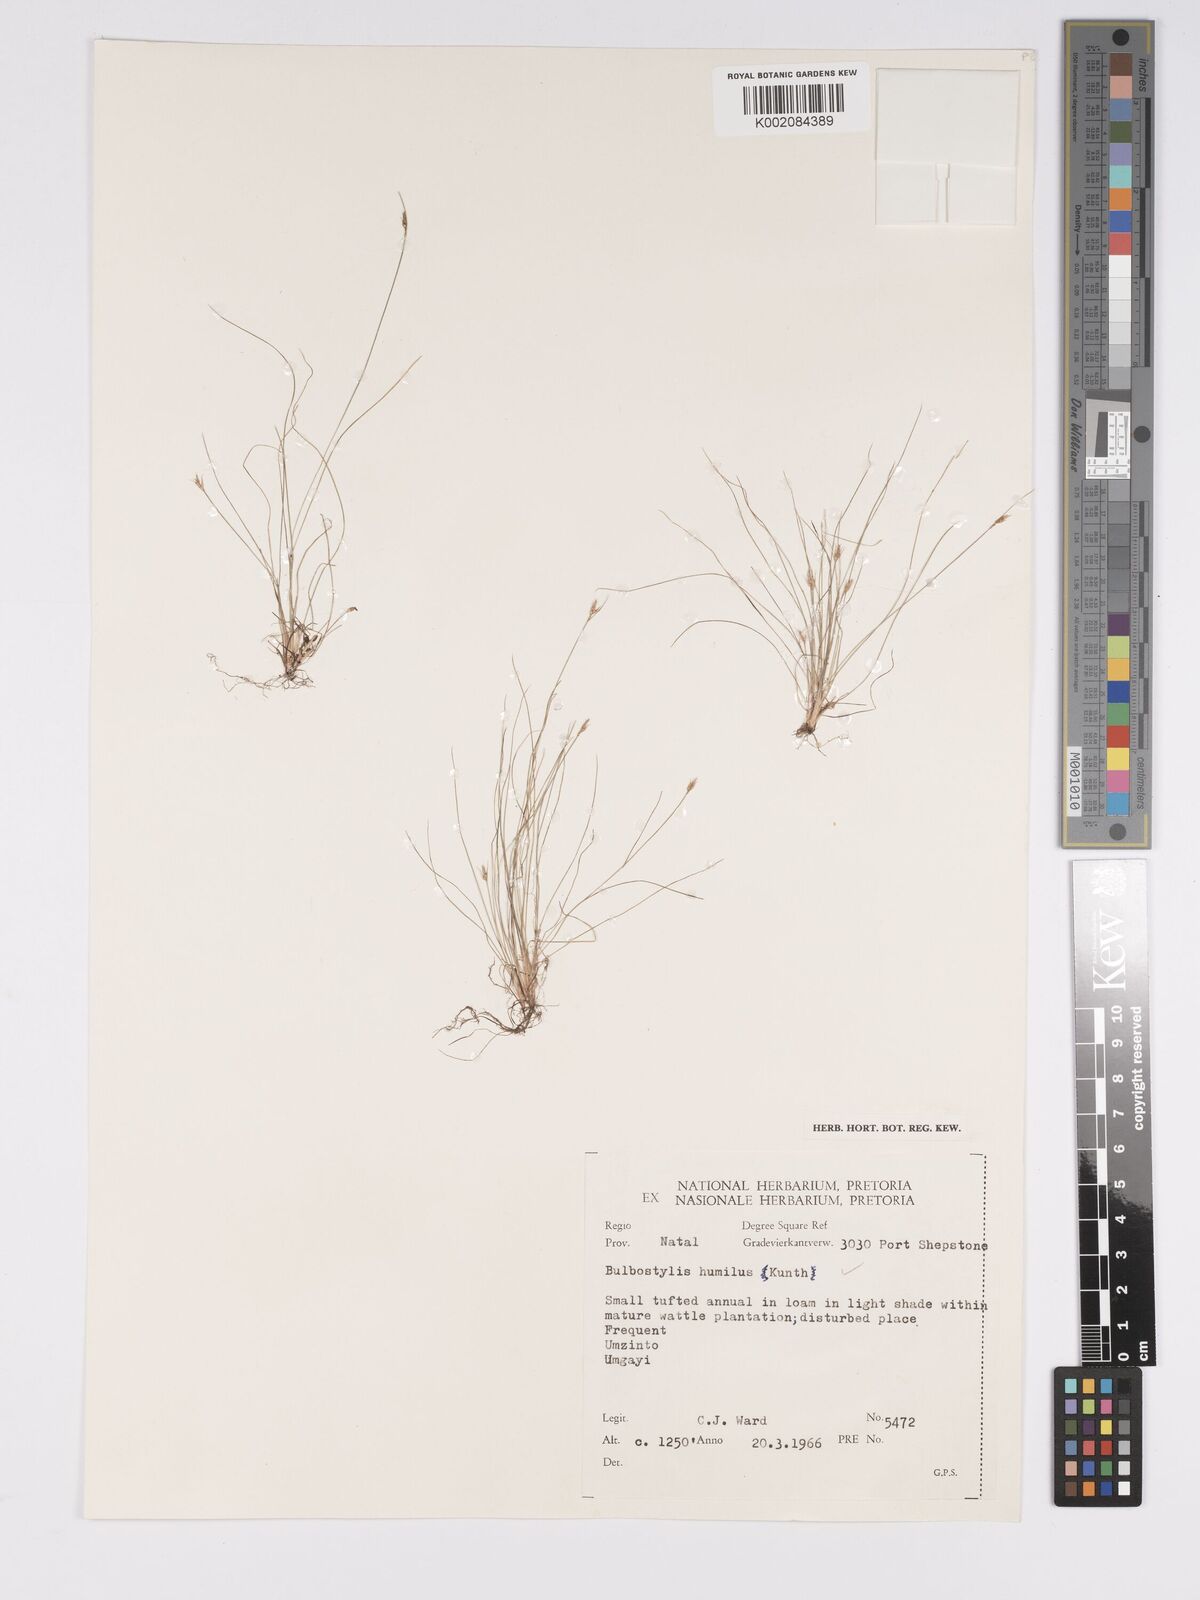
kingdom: Plantae
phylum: Tracheophyta
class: Liliopsida
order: Poales
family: Cyperaceae
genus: Bulbostylis
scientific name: Bulbostylis humilis
